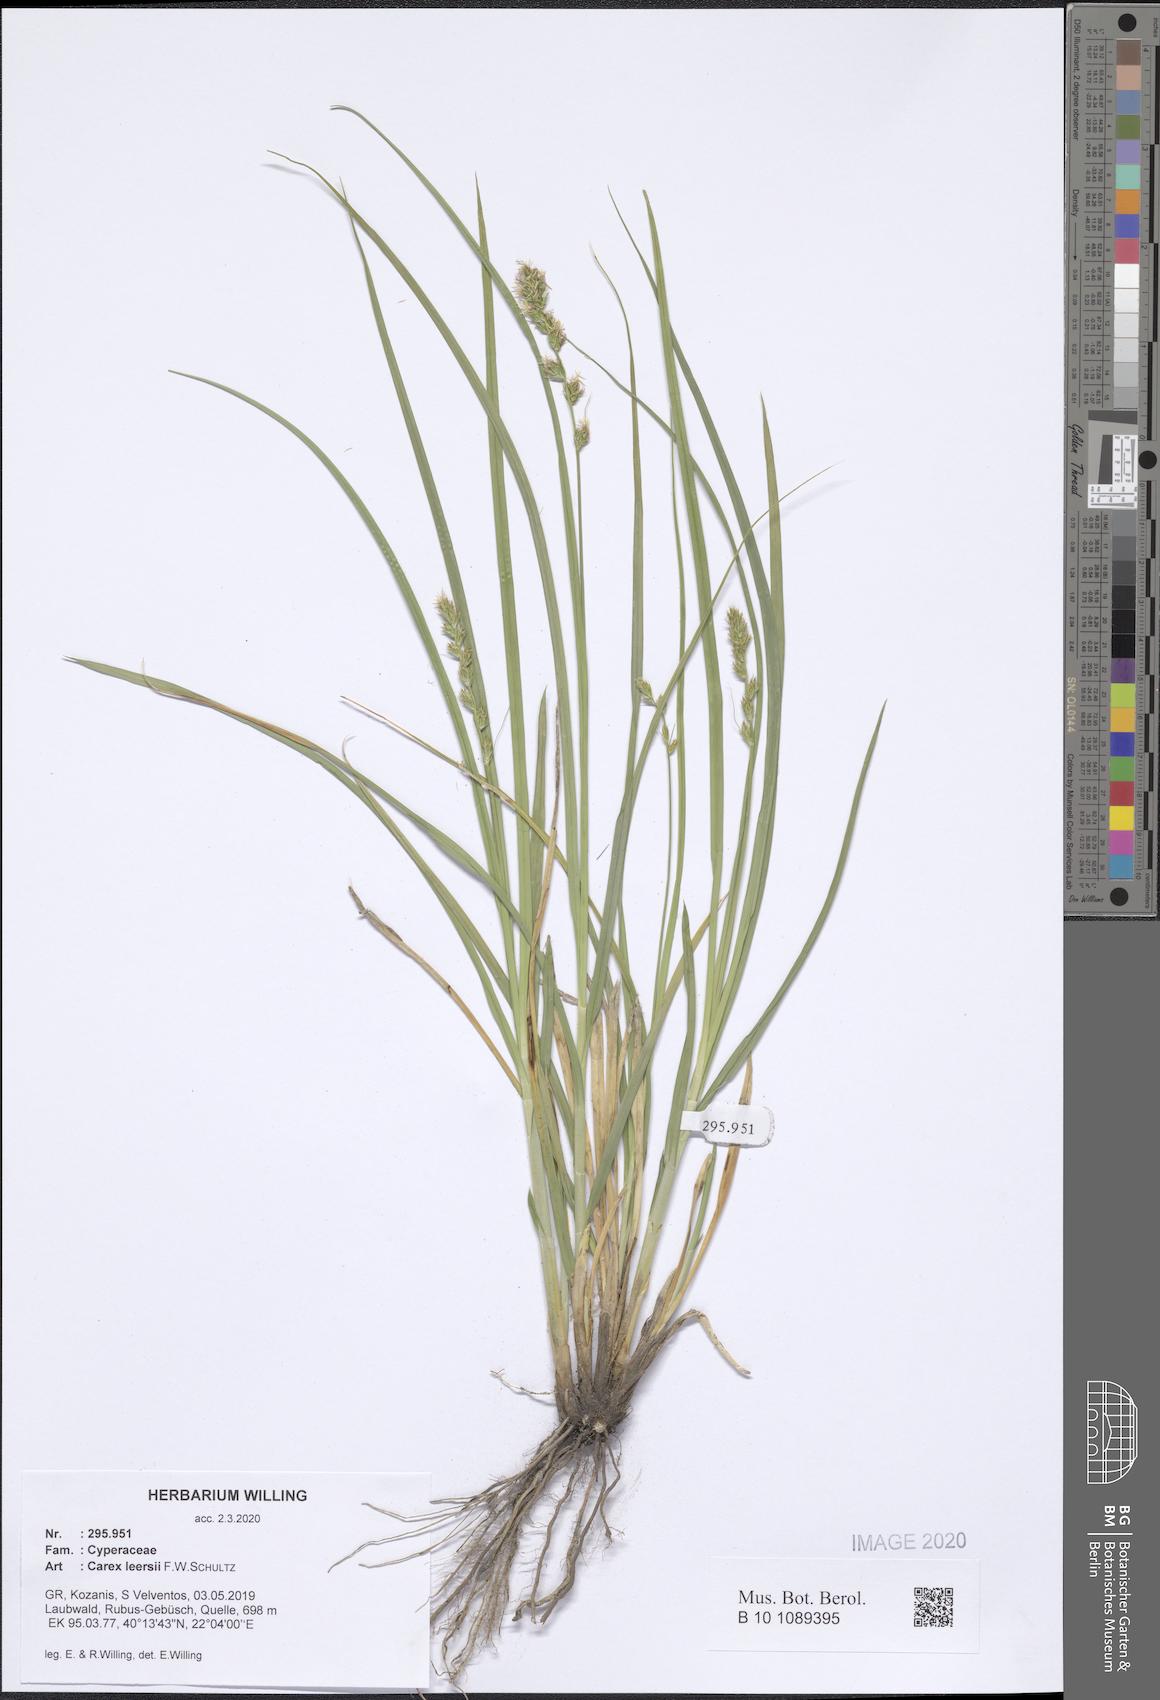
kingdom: Plantae
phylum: Tracheophyta
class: Liliopsida
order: Poales
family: Cyperaceae
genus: Carex
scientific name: Carex leersii
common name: Leers' sedge
